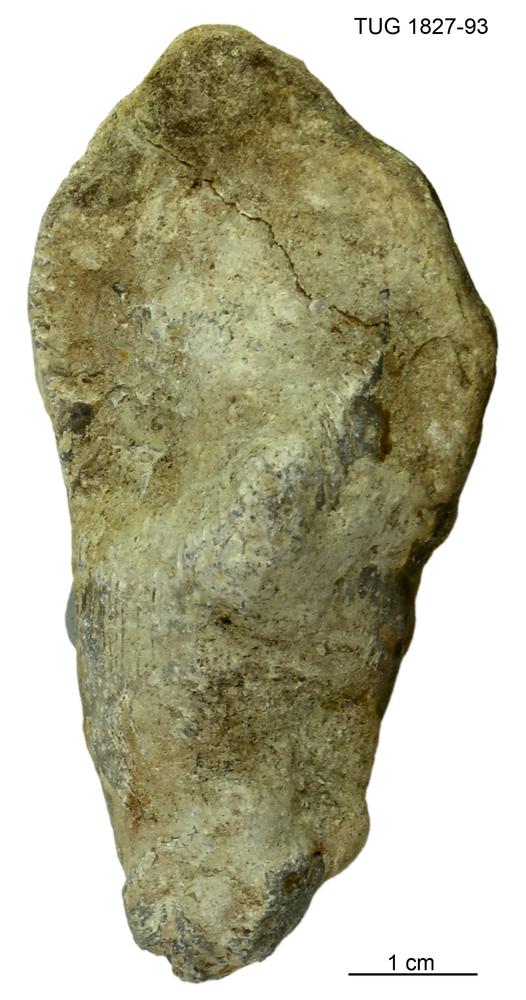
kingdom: Animalia
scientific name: Animalia
